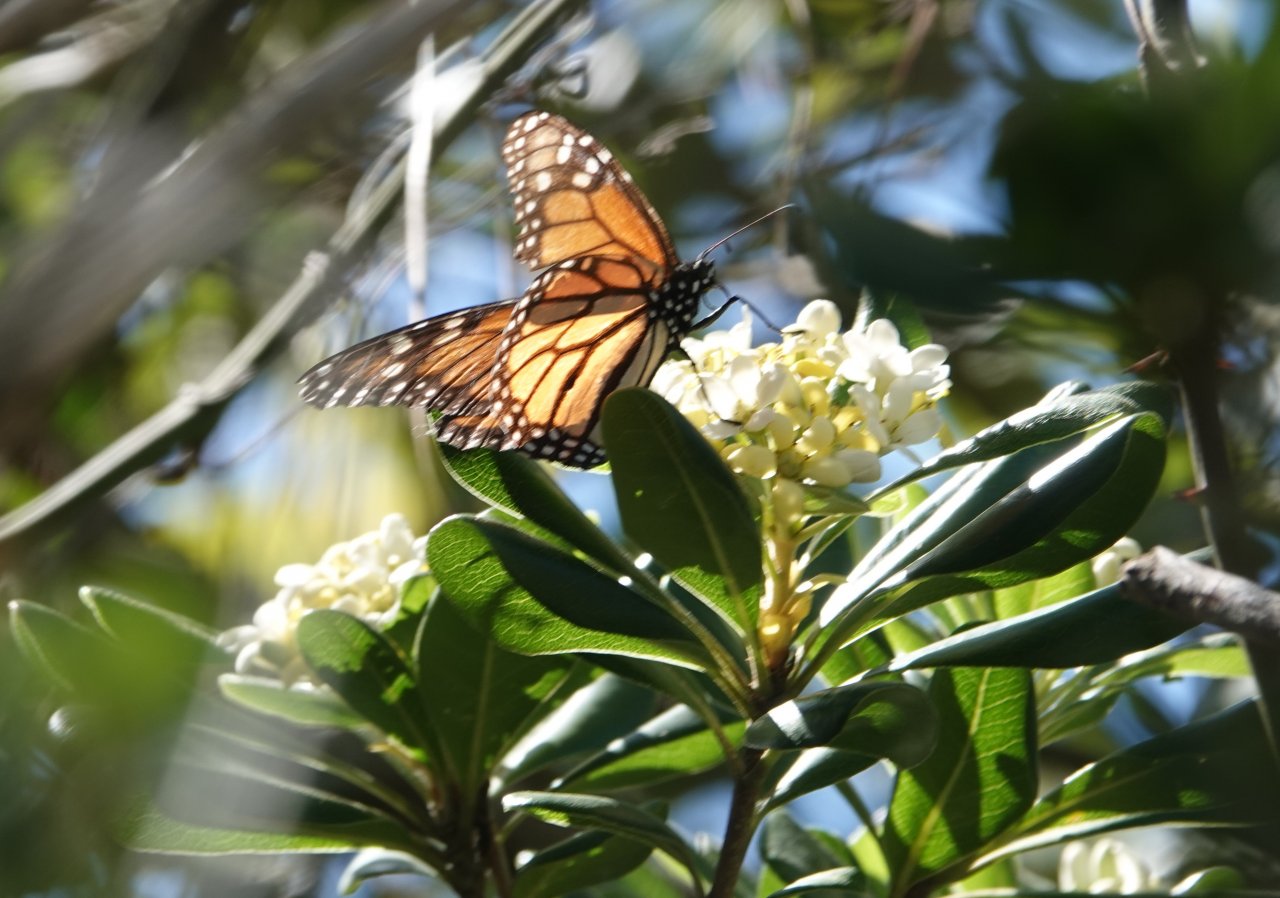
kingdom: Animalia
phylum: Arthropoda
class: Insecta
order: Lepidoptera
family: Nymphalidae
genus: Danaus
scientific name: Danaus plexippus
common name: Monarch
